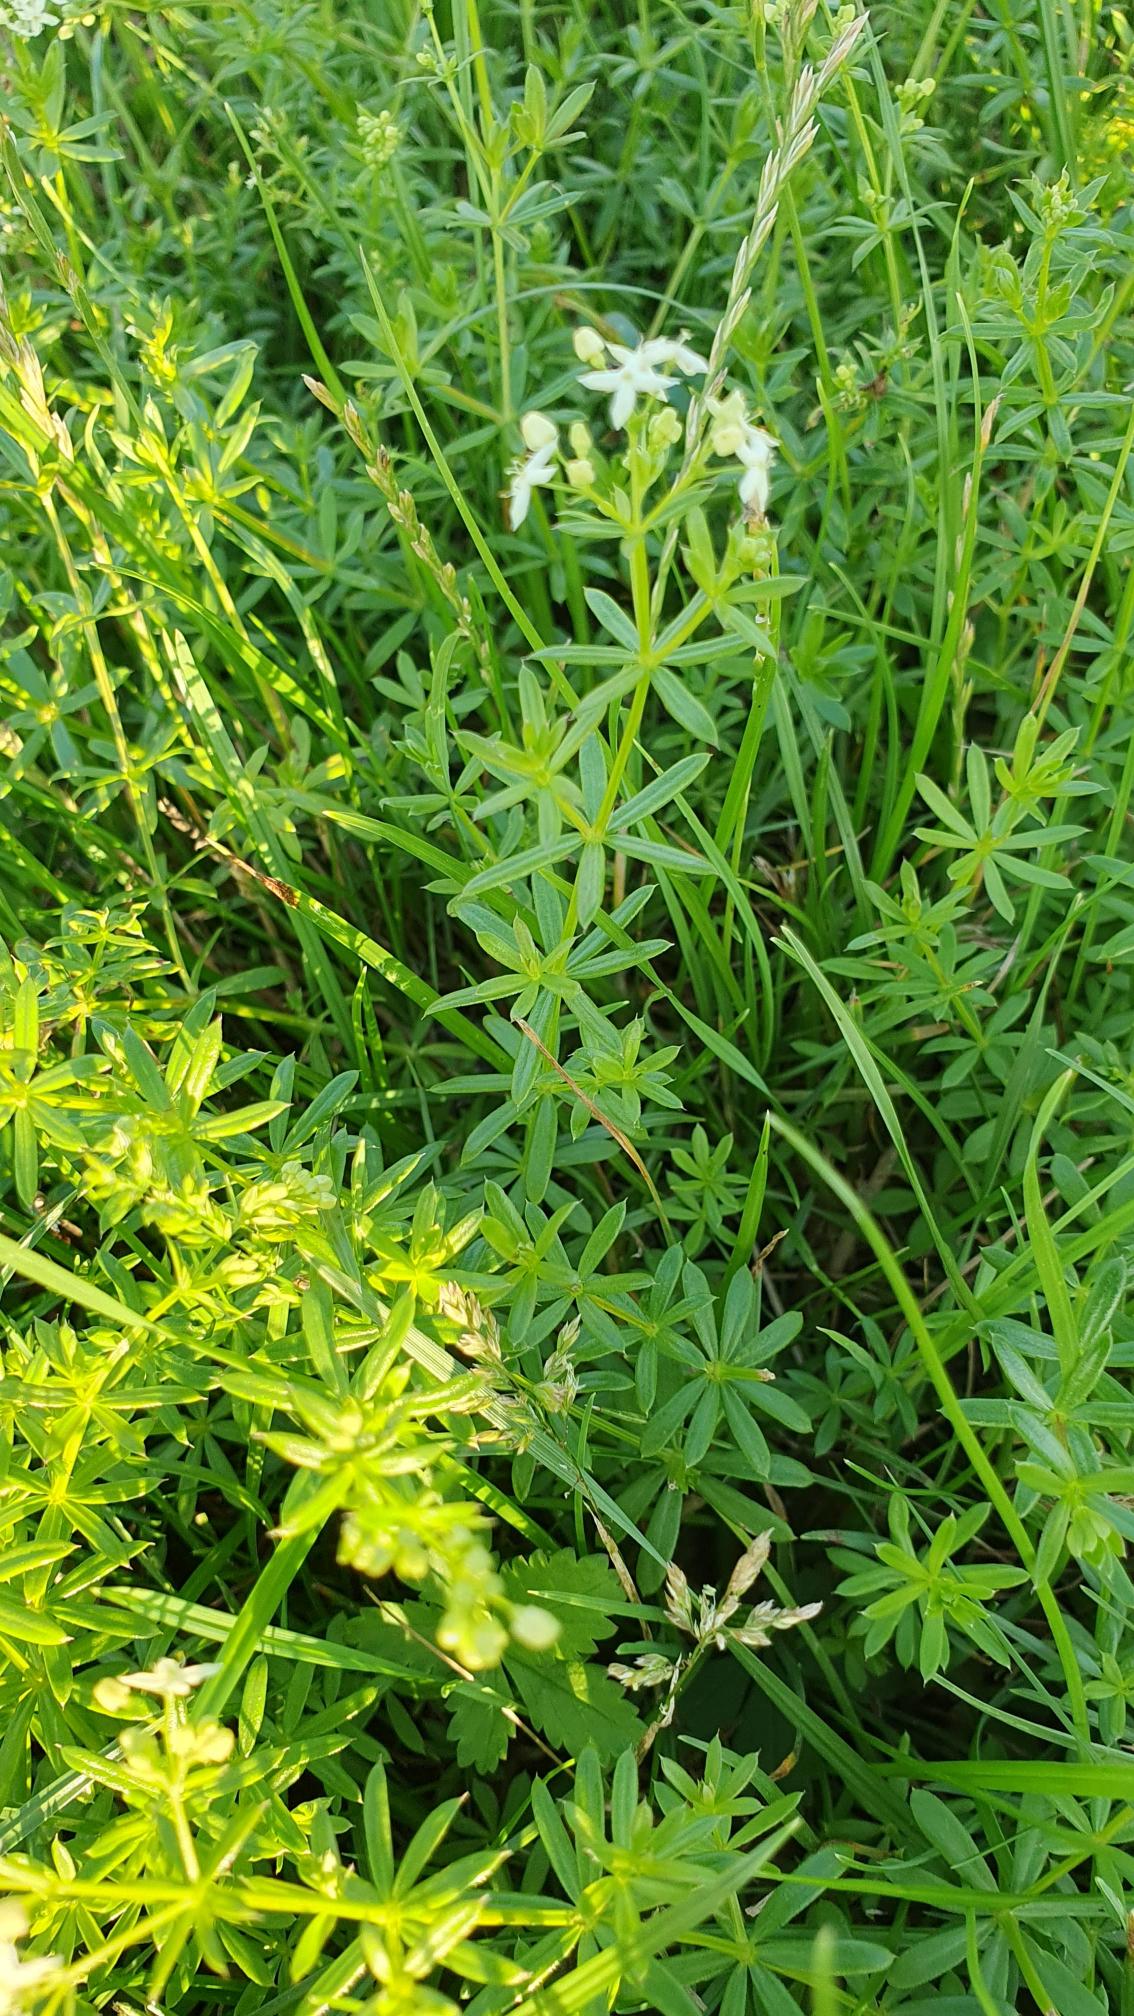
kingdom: Plantae
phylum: Tracheophyta
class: Magnoliopsida
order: Gentianales
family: Rubiaceae
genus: Galium
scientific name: Galium mollugo
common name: Hvid snerre
